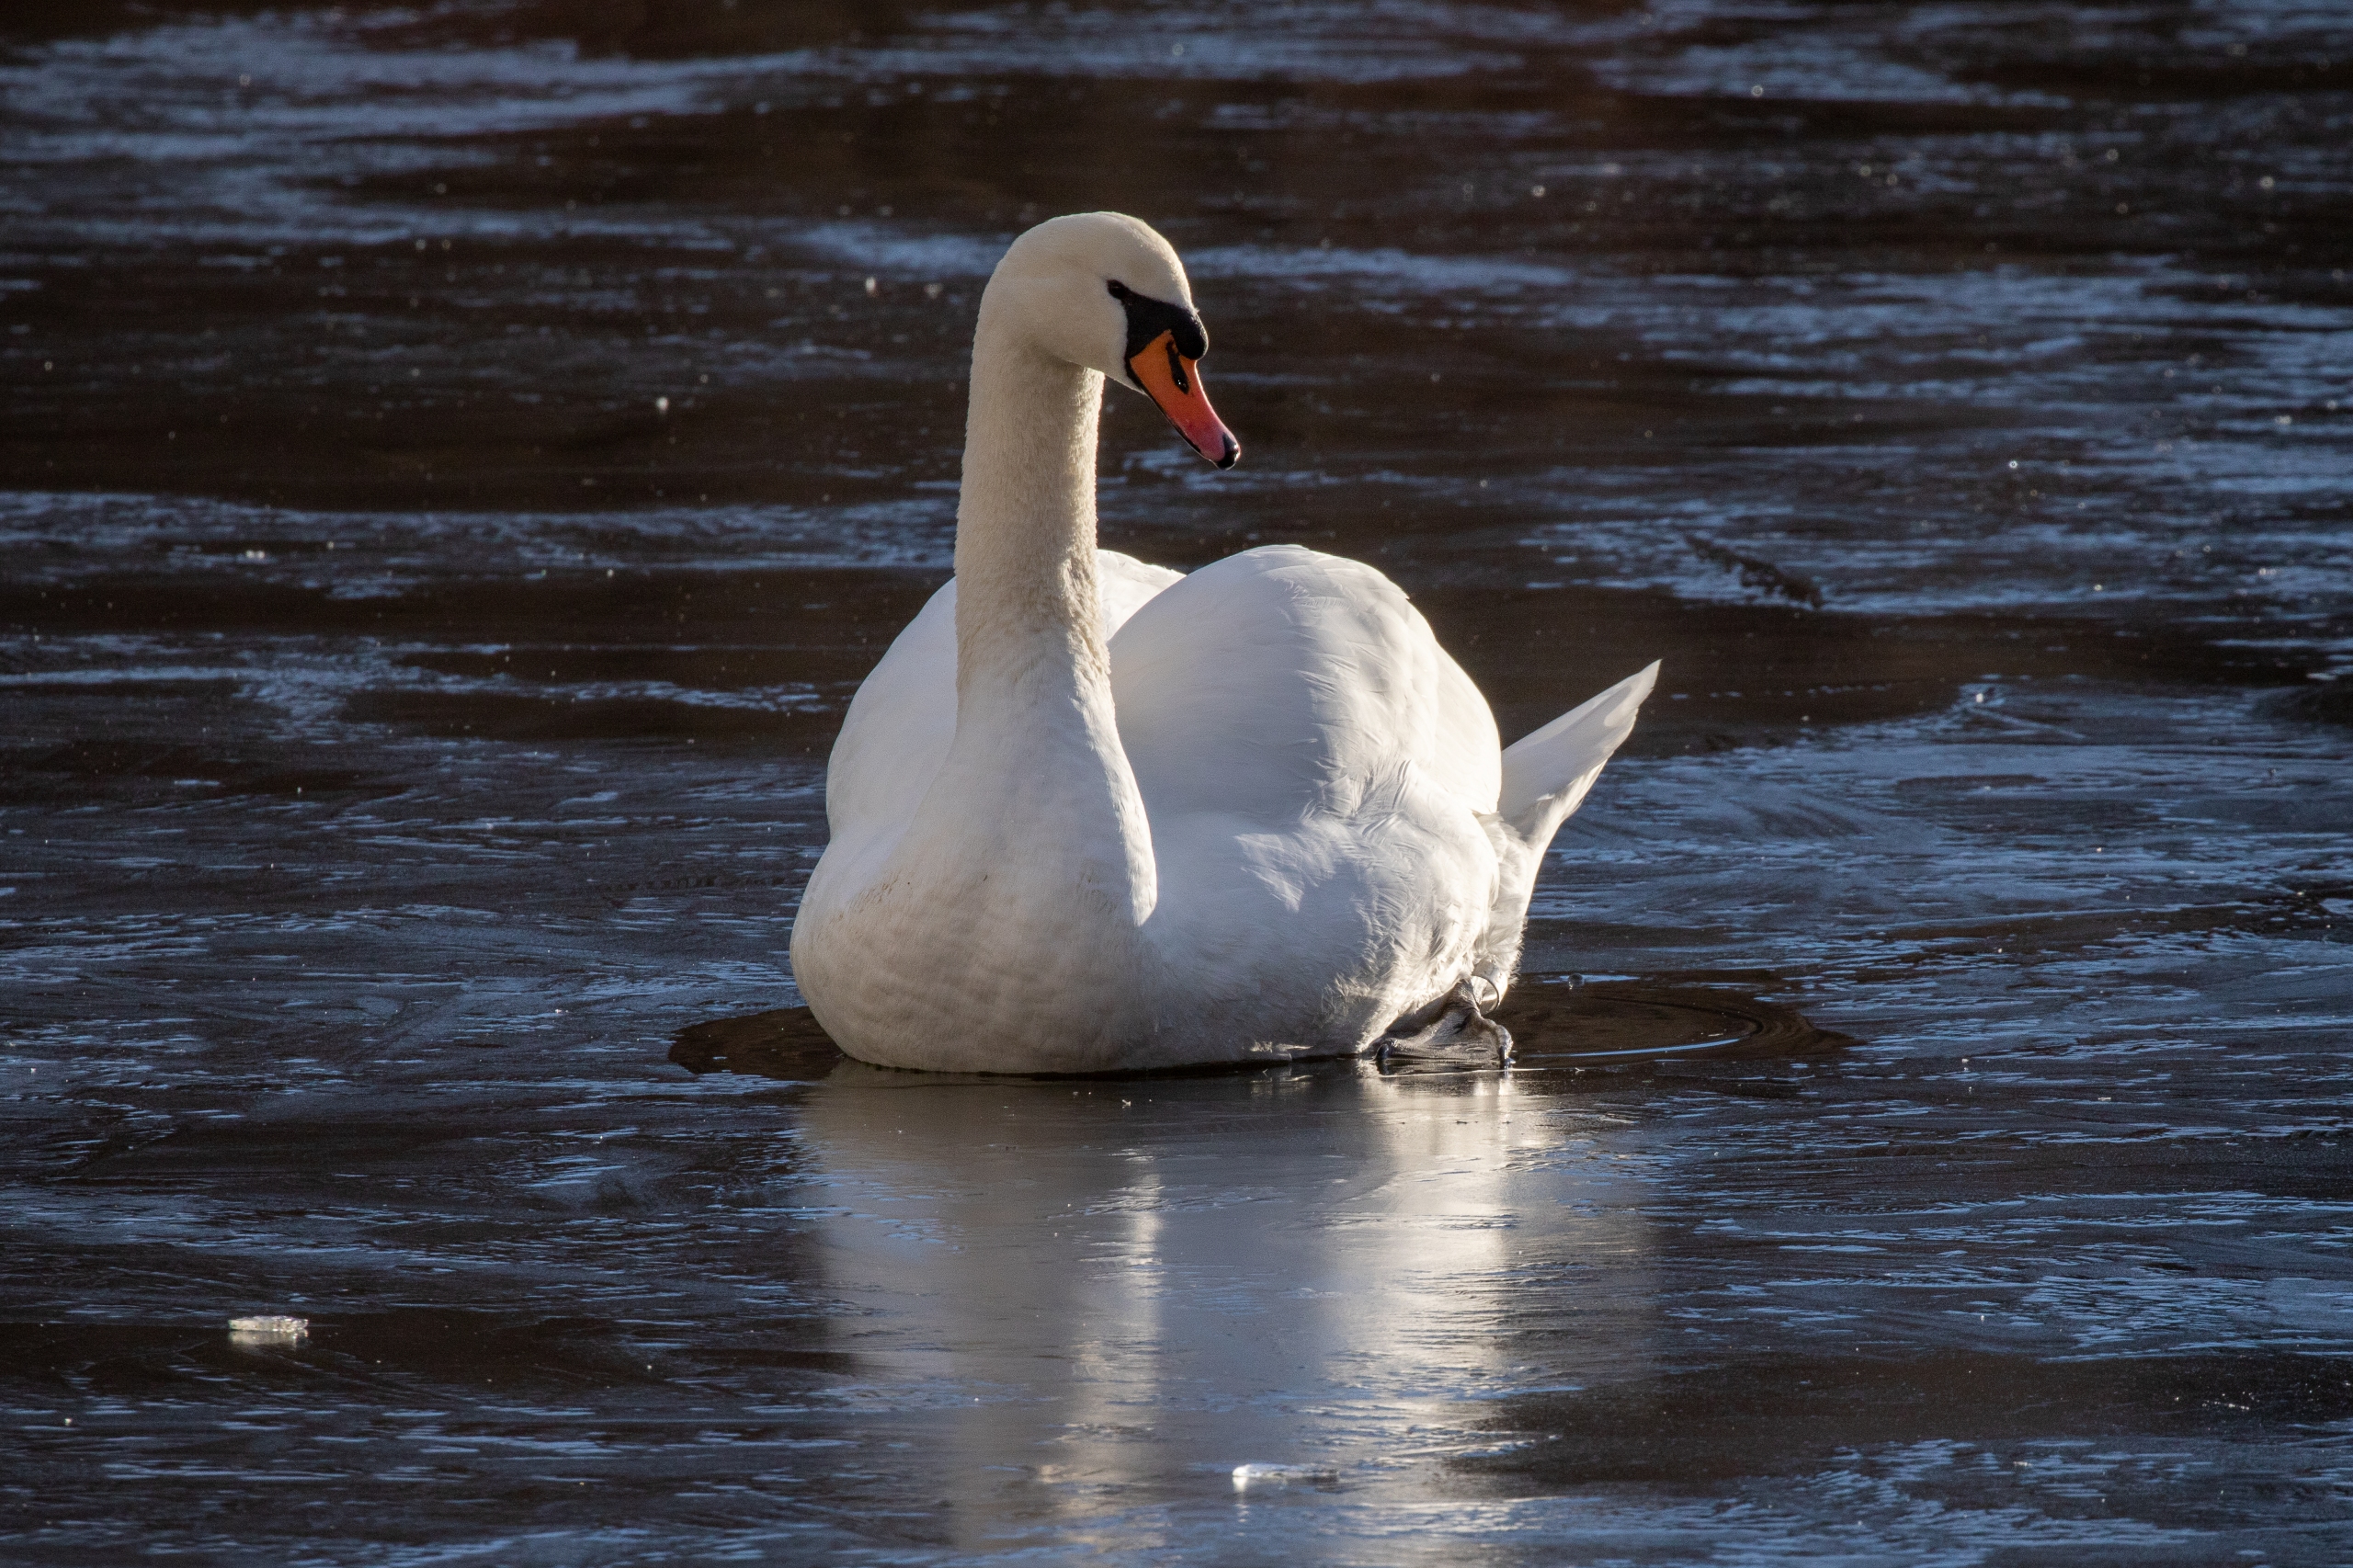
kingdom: Animalia
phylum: Chordata
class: Aves
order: Anseriformes
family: Anatidae
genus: Cygnus
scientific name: Cygnus olor
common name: Knopsvane
